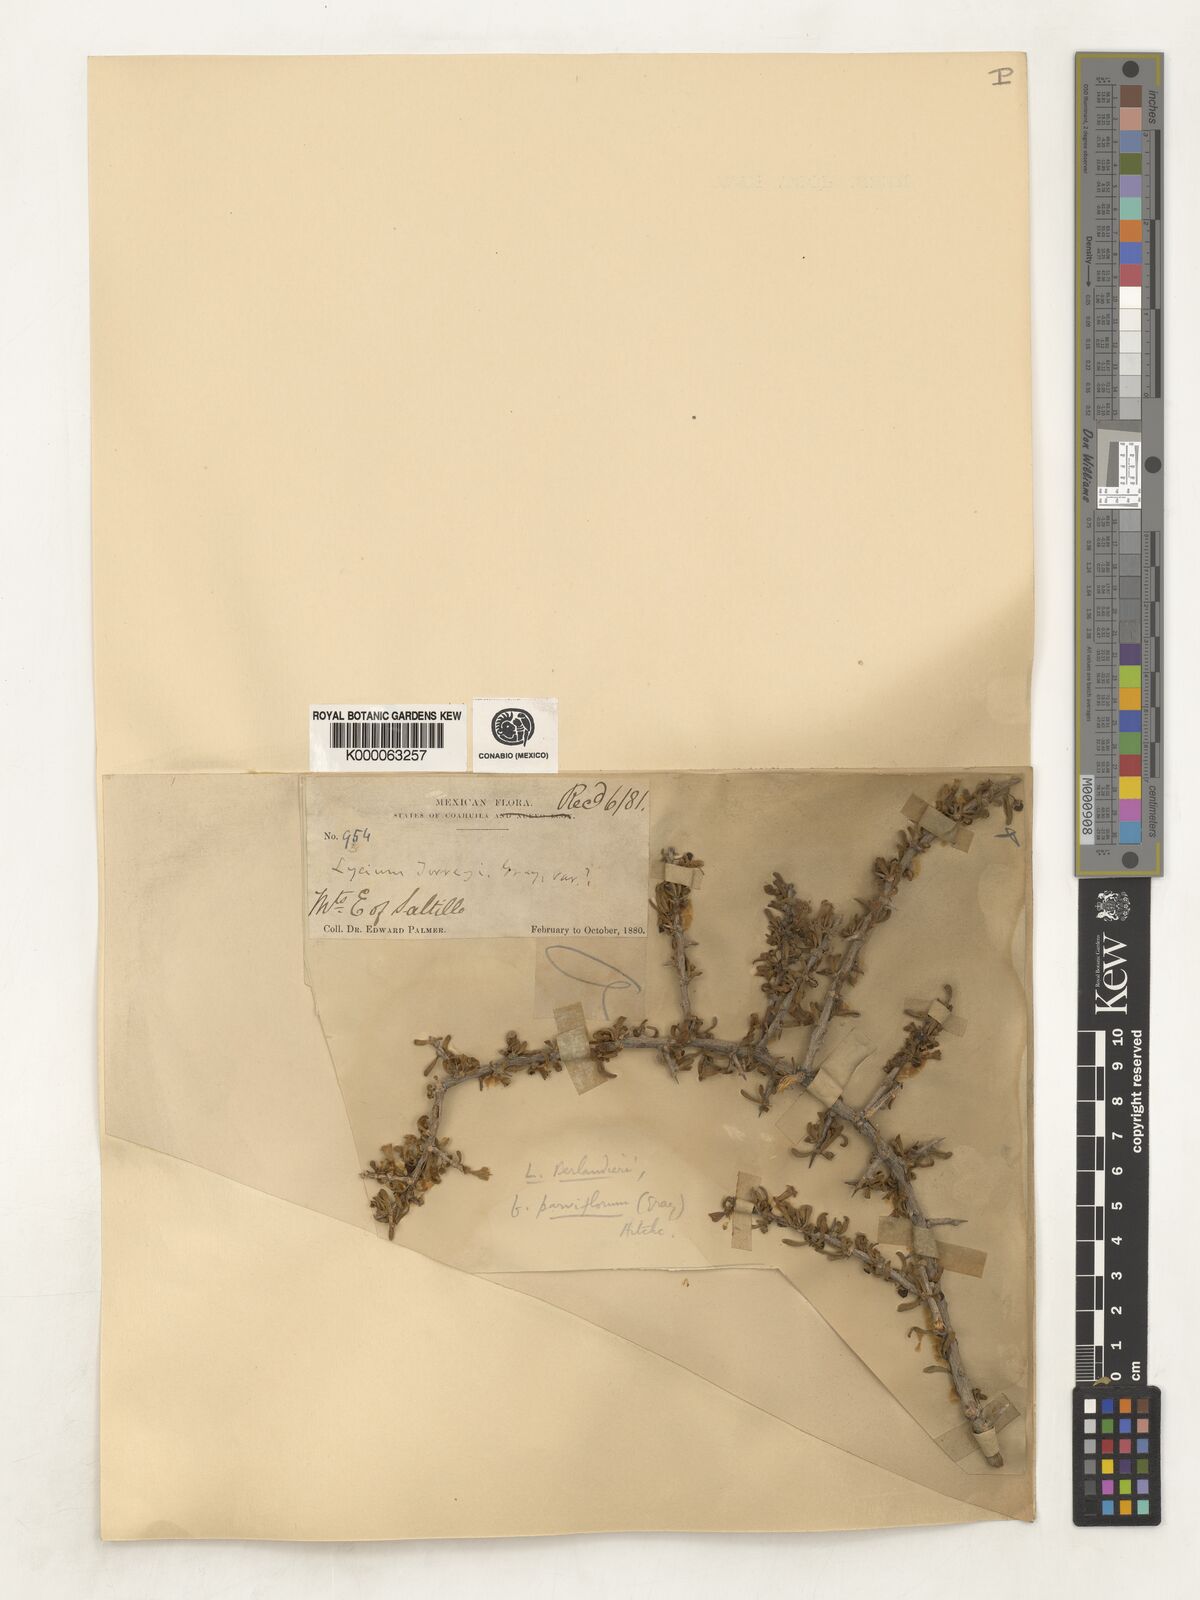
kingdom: Plantae
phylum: Tracheophyta
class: Magnoliopsida
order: Solanales
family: Solanaceae
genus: Lycium
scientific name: Lycium berlandieri
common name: Berlandier wolfberry
